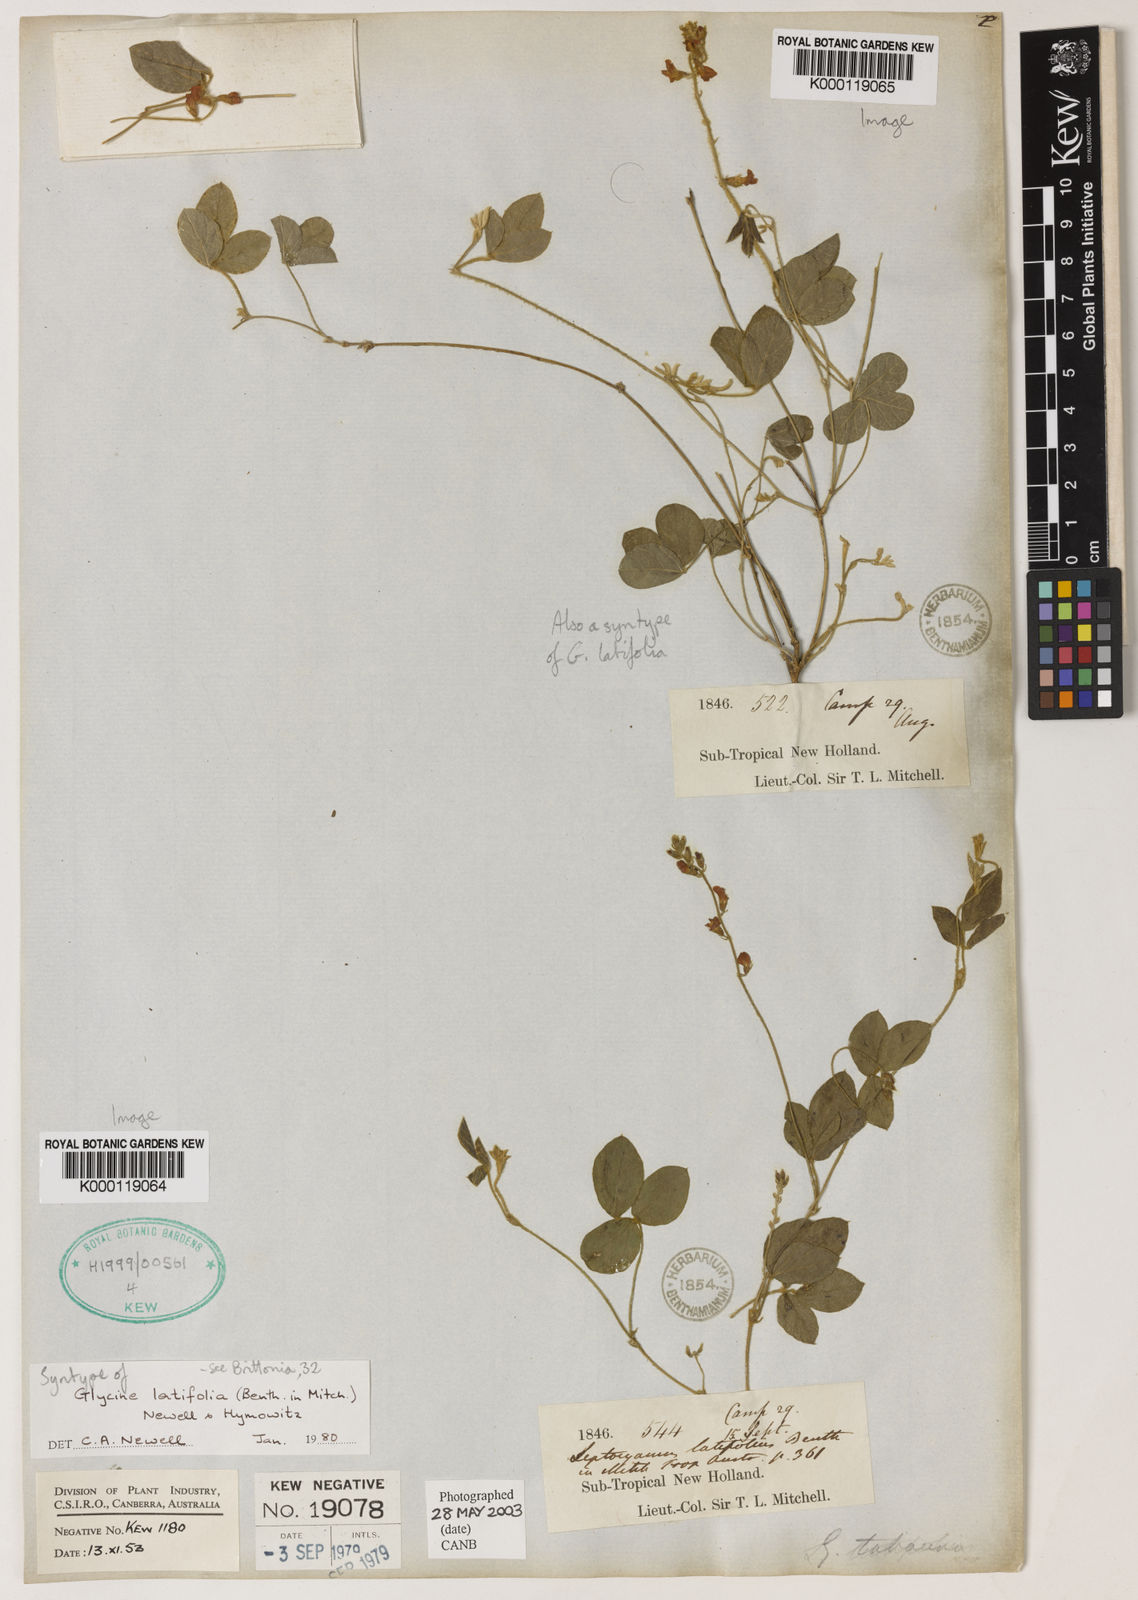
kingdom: Plantae
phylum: Tracheophyta
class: Magnoliopsida
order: Fabales
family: Fabaceae
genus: Glycine
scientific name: Glycine latifolia
